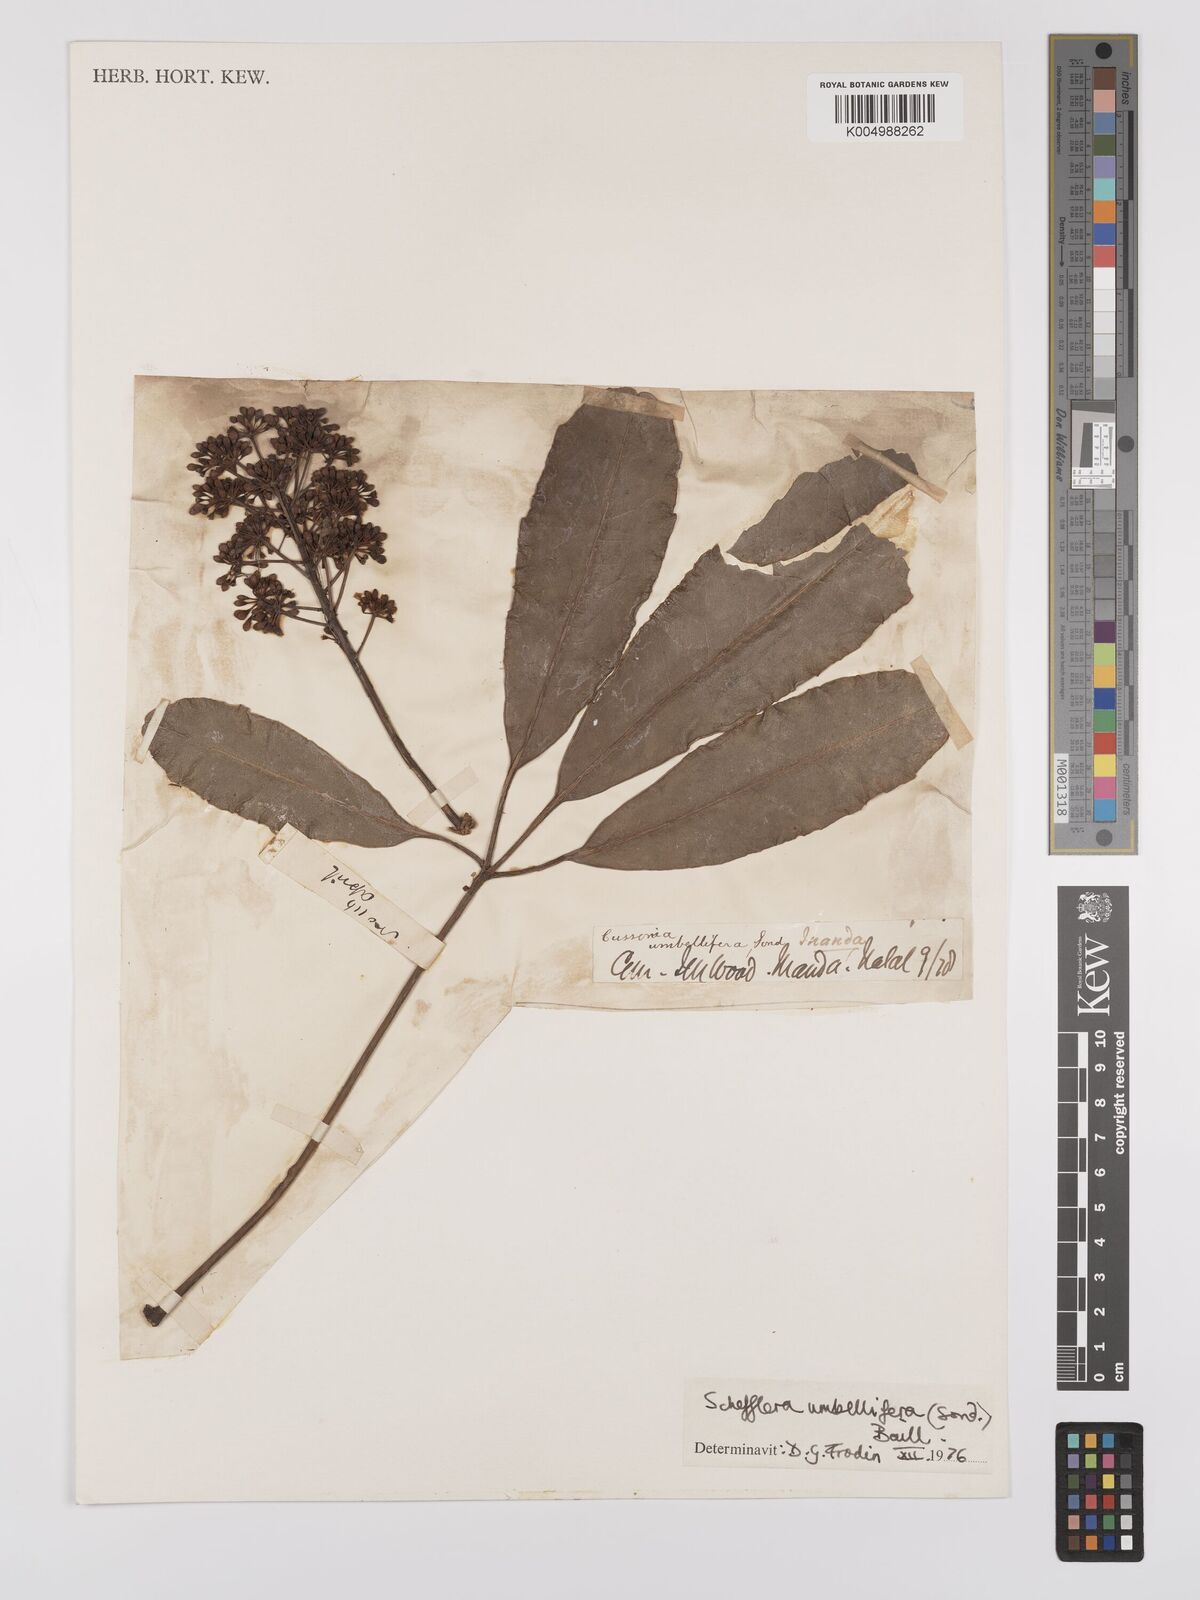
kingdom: Plantae
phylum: Tracheophyta
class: Magnoliopsida
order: Apiales
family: Araliaceae
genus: Neocussonia
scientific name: Neocussonia umbellifera
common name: False cabbage tree
